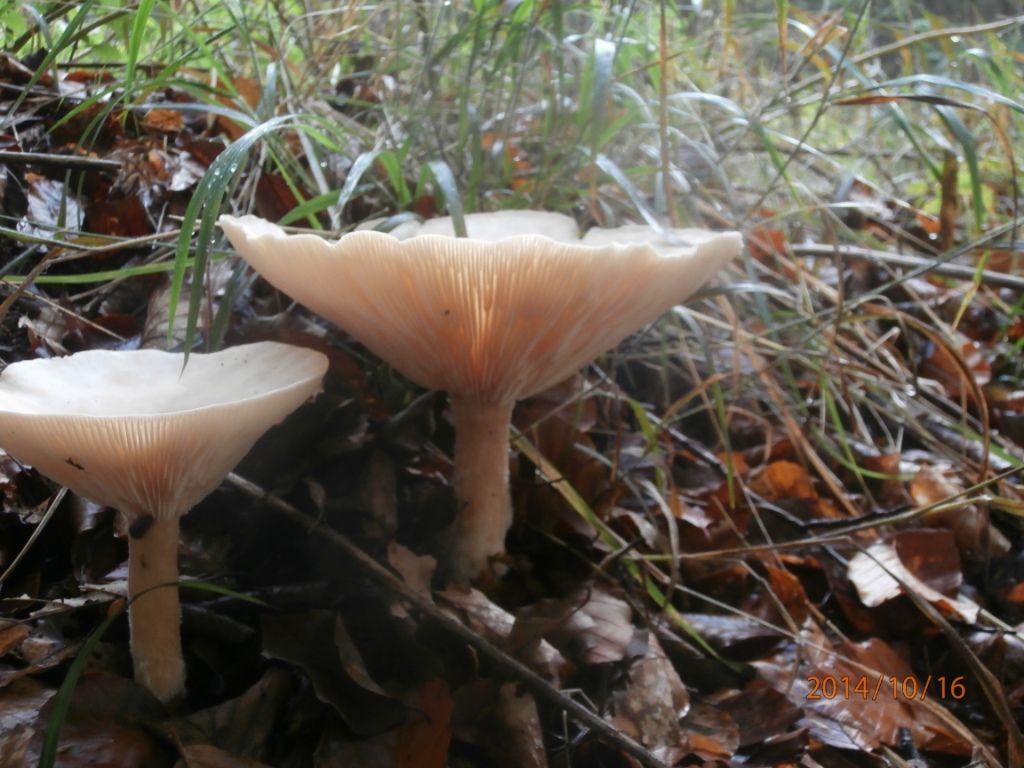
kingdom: Fungi
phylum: Basidiomycota
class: Agaricomycetes
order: Agaricales
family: Tricholomataceae
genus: Infundibulicybe
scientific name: Infundibulicybe geotropa
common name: stor tragthat
